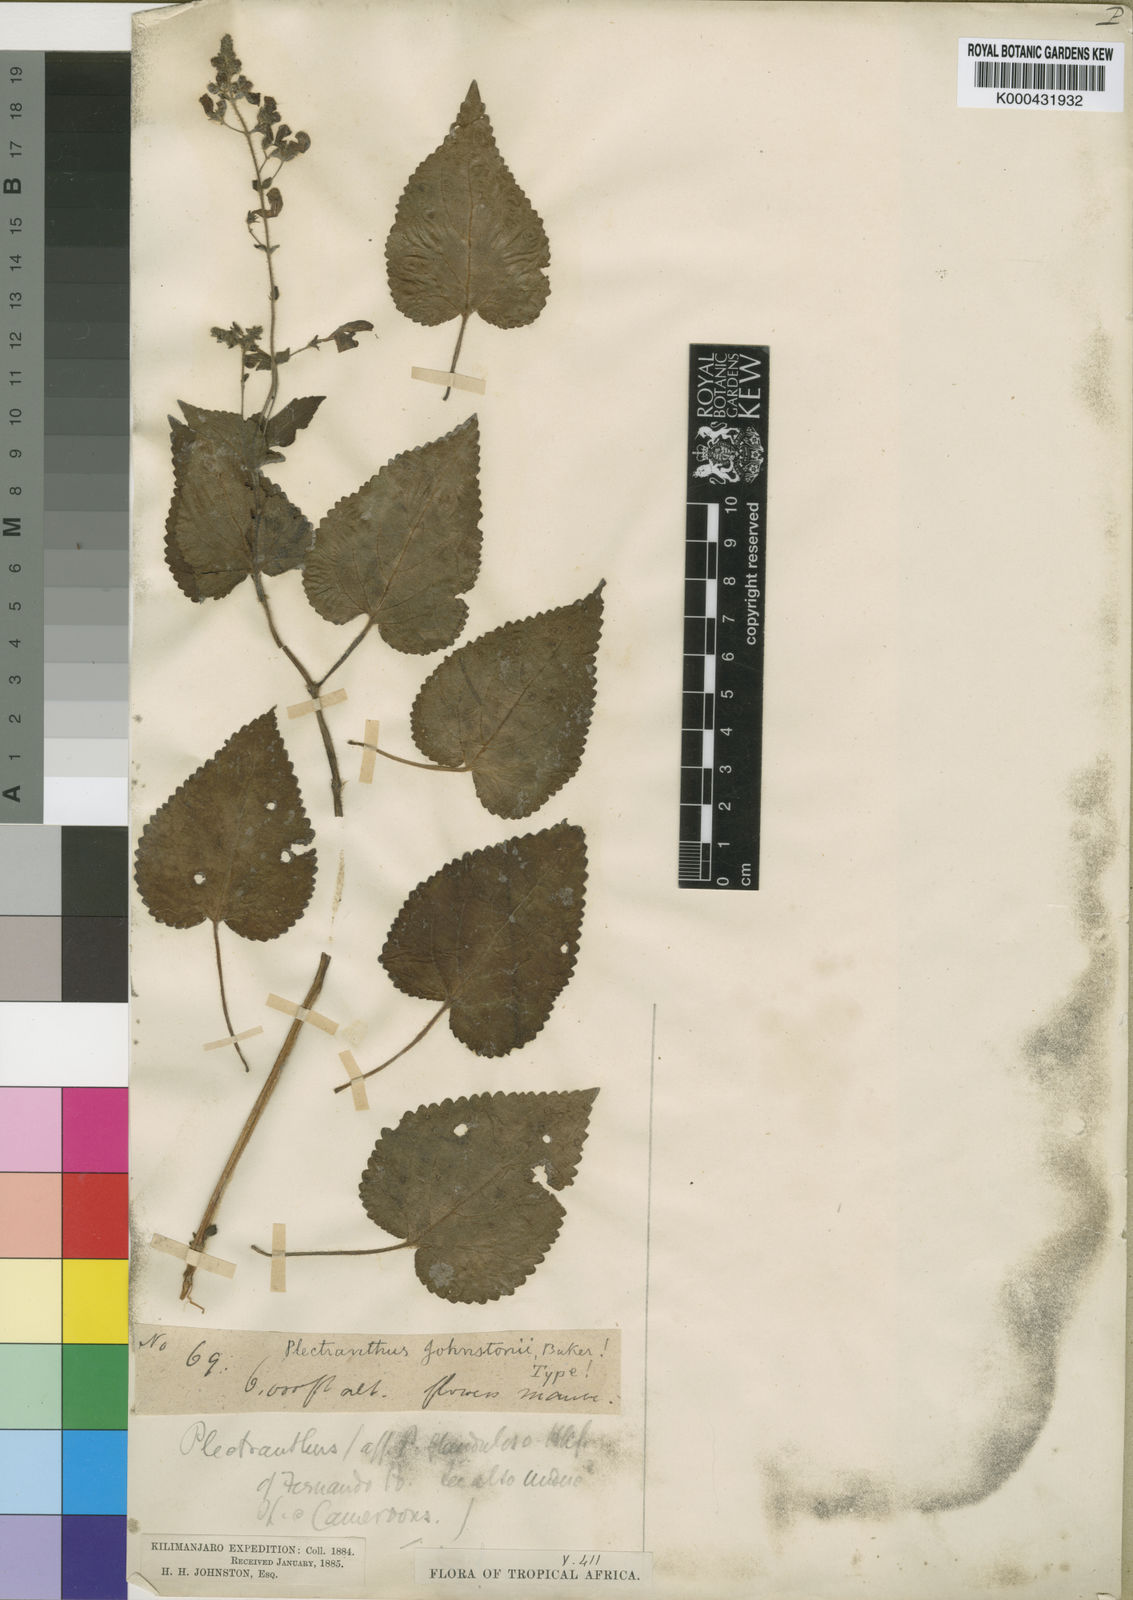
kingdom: Plantae
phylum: Tracheophyta
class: Magnoliopsida
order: Lamiales
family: Lamiaceae
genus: Equilabium
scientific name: Equilabium laxiflorum
